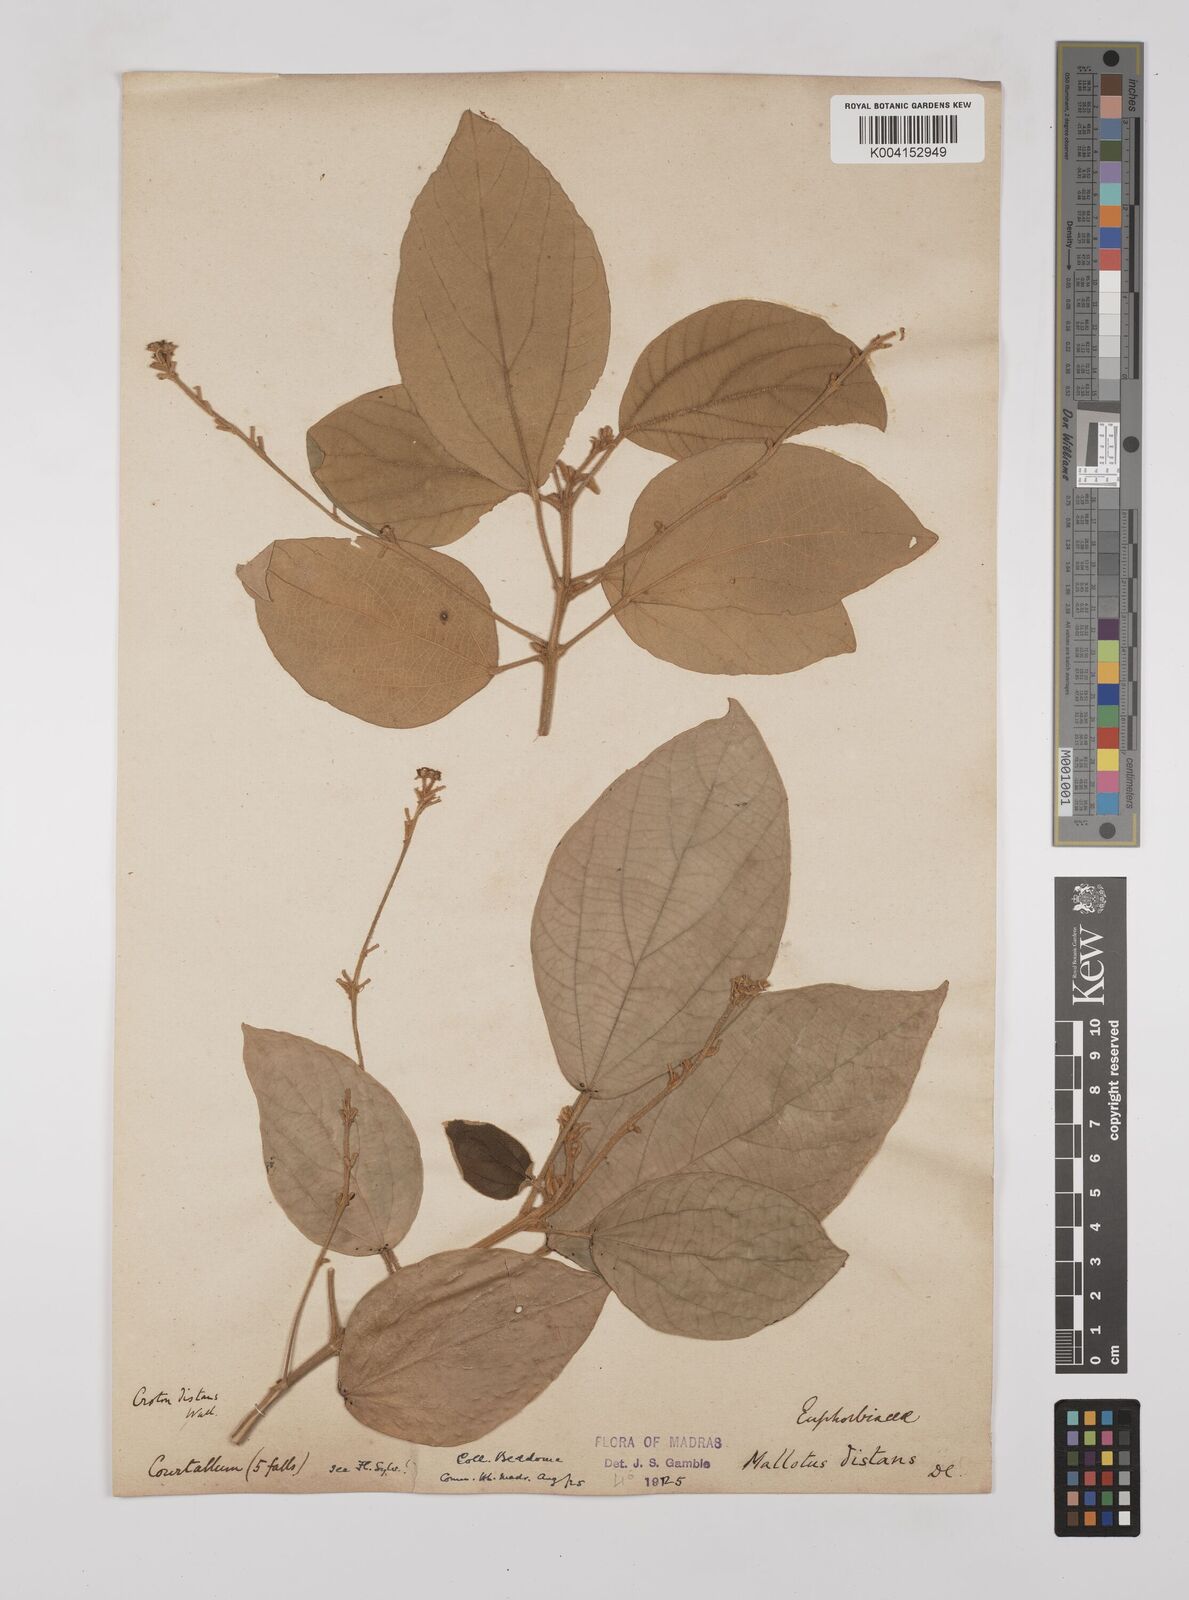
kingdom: Plantae
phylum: Tracheophyta
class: Magnoliopsida
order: Malpighiales
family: Euphorbiaceae
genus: Mallotus
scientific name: Mallotus distans
